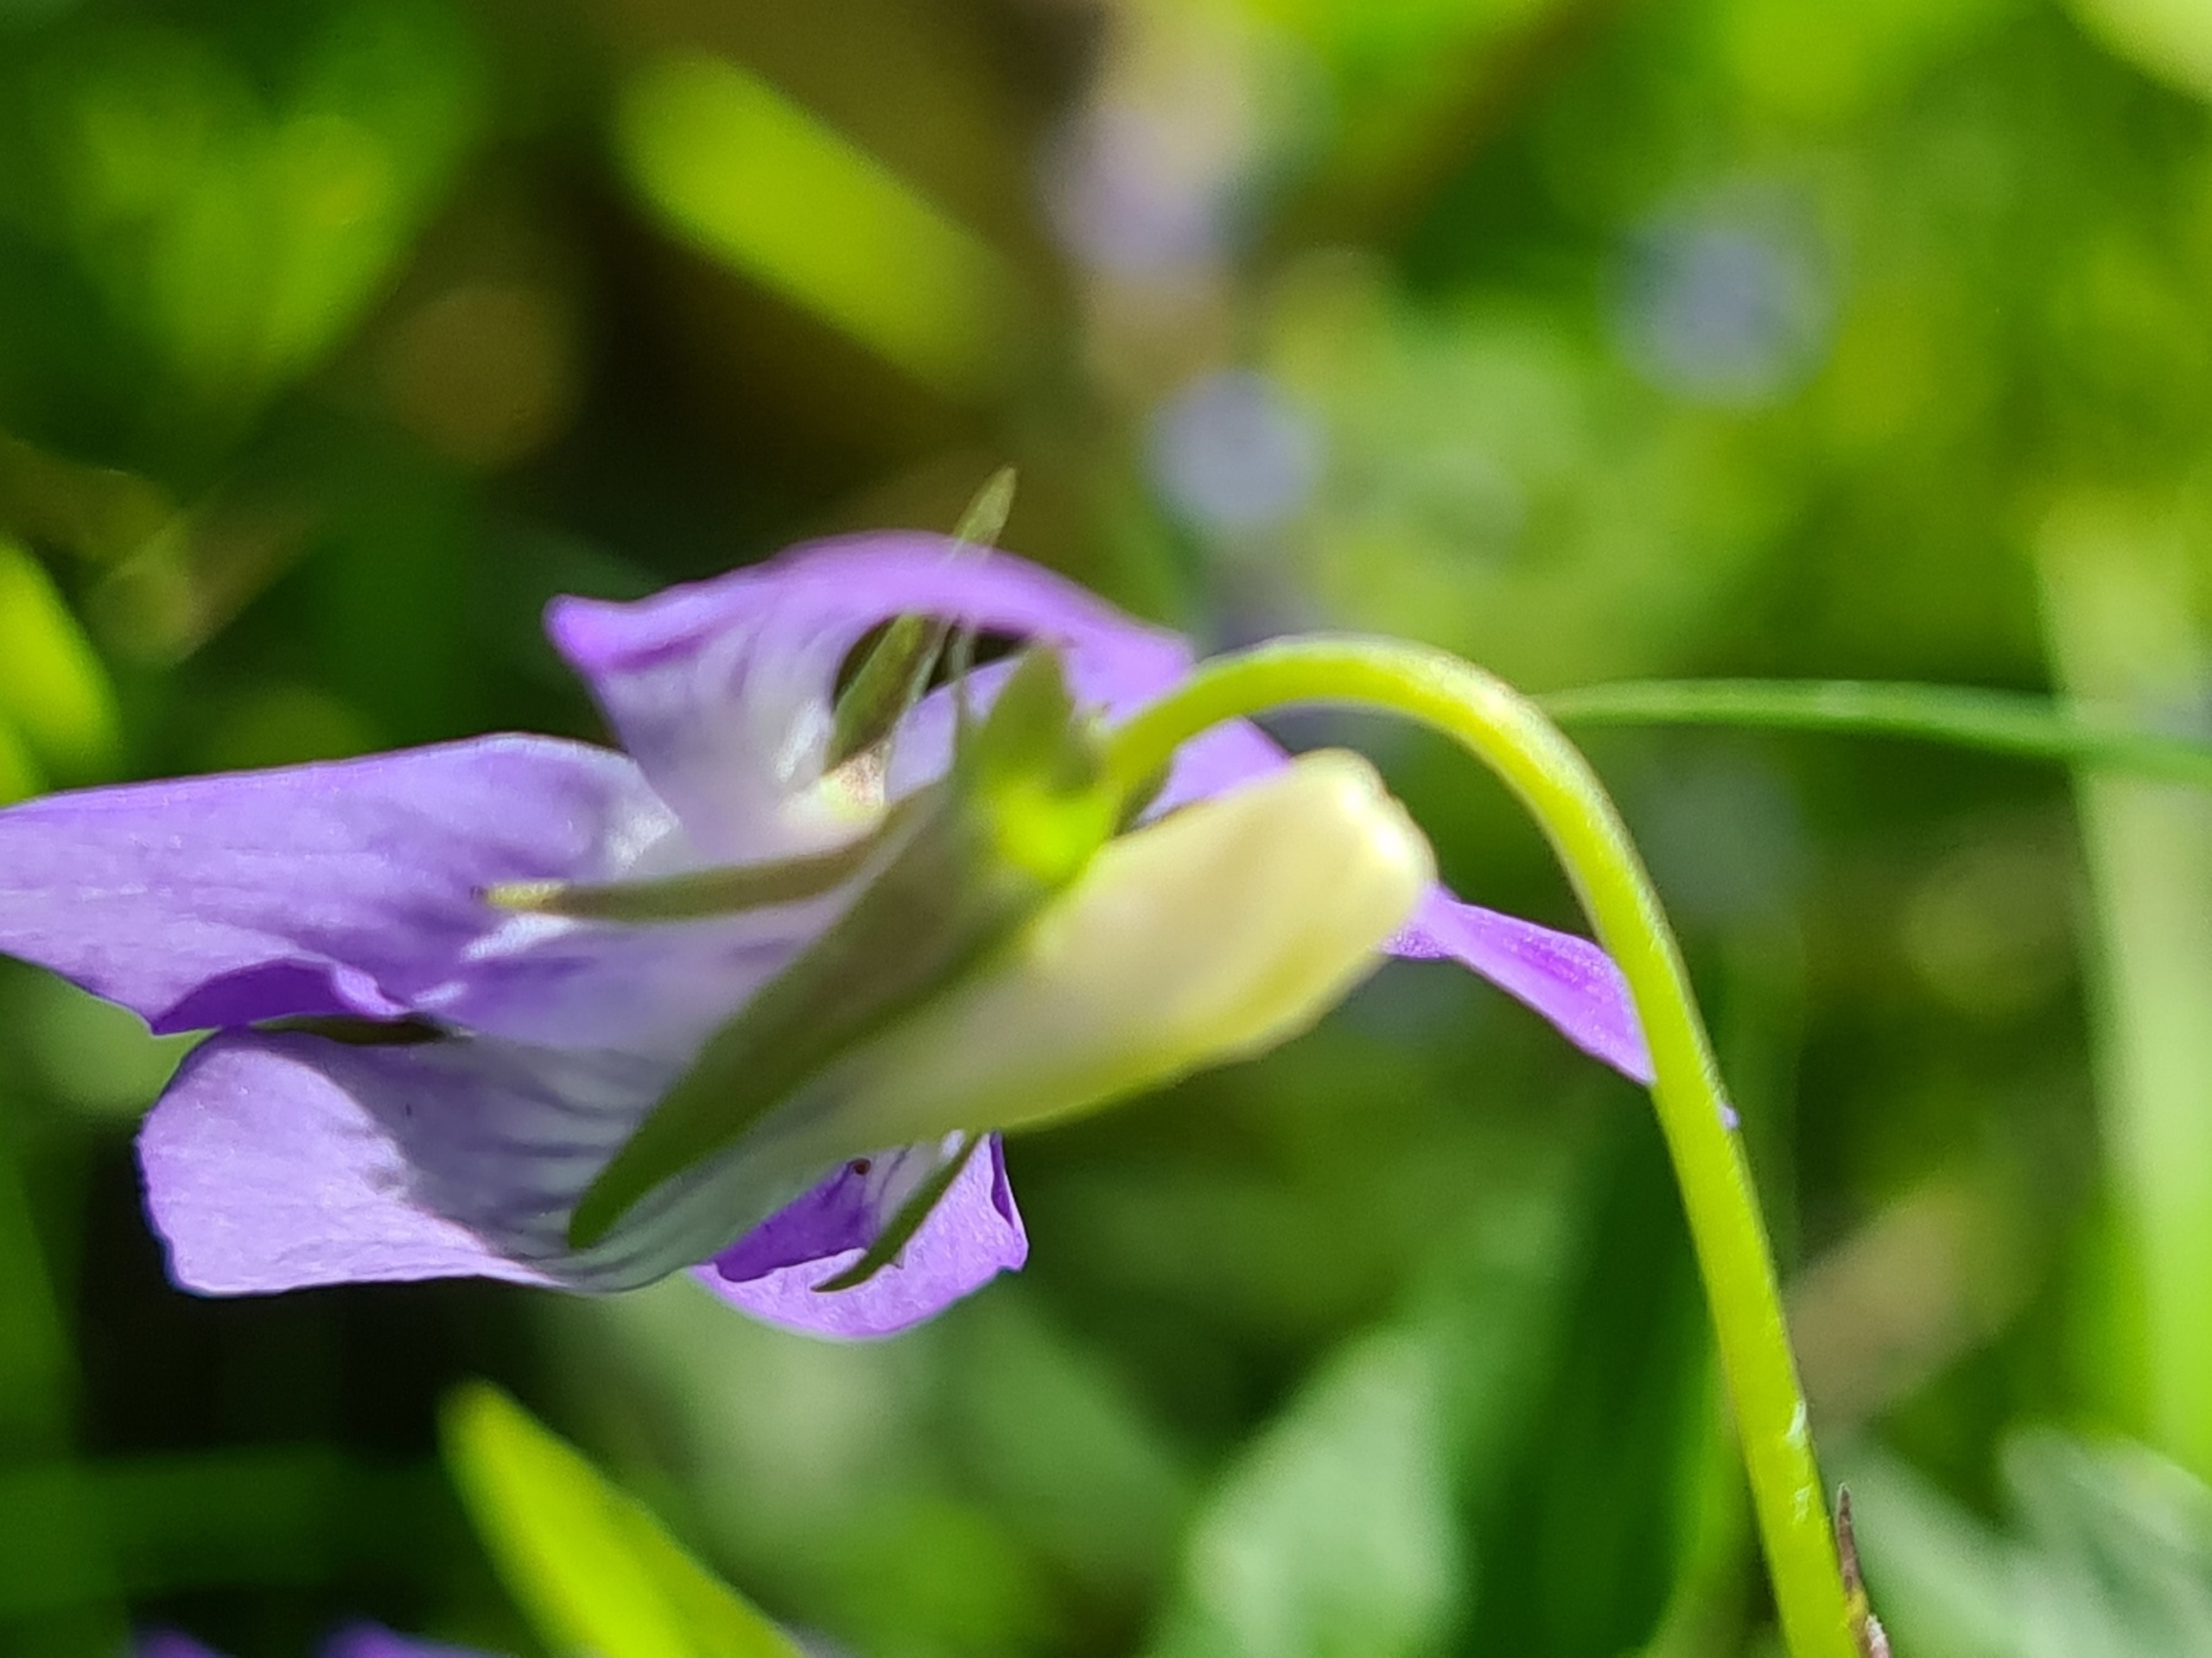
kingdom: Plantae
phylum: Tracheophyta
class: Magnoliopsida
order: Malpighiales
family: Violaceae
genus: Viola
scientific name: Viola riviniana
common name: Krat-viol
